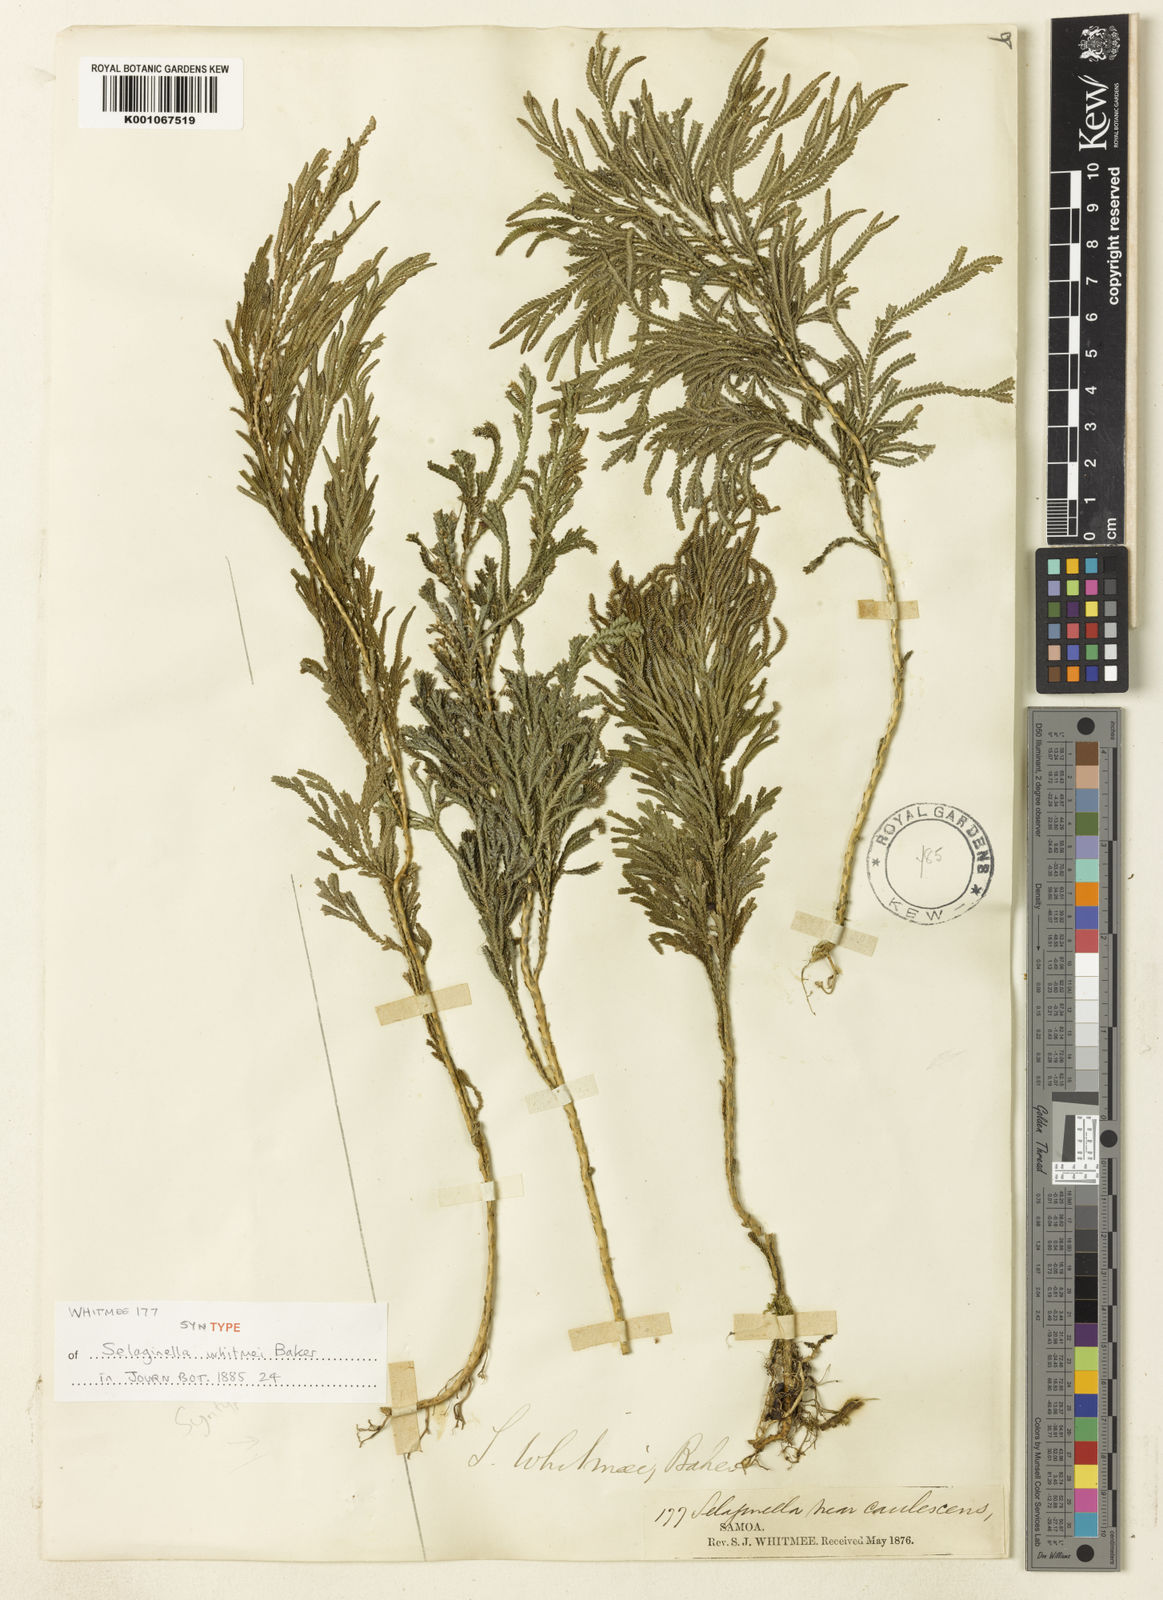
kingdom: Plantae
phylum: Tracheophyta
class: Lycopodiopsida
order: Selaginellales
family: Selaginellaceae
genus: Selaginella
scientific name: Selaginella whitmeei
